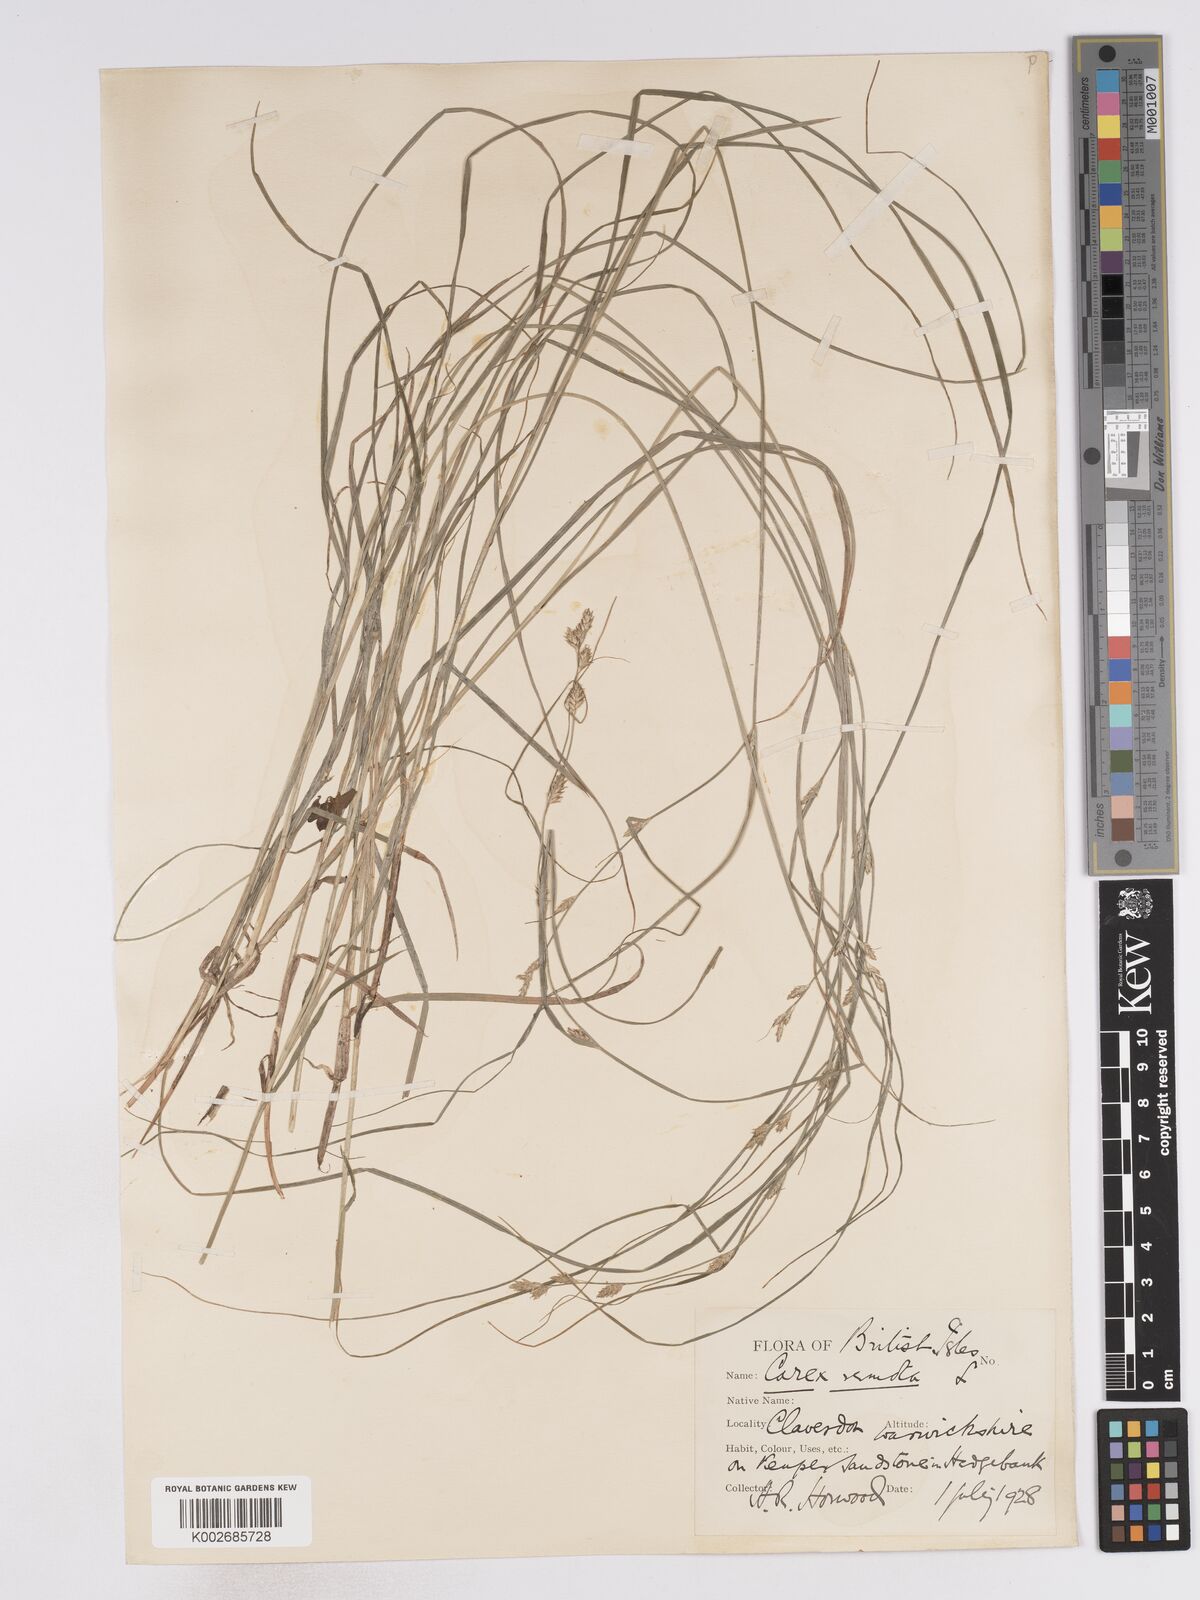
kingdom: Plantae
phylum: Tracheophyta
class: Liliopsida
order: Poales
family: Cyperaceae
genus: Carex
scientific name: Carex remota
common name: Remote sedge
